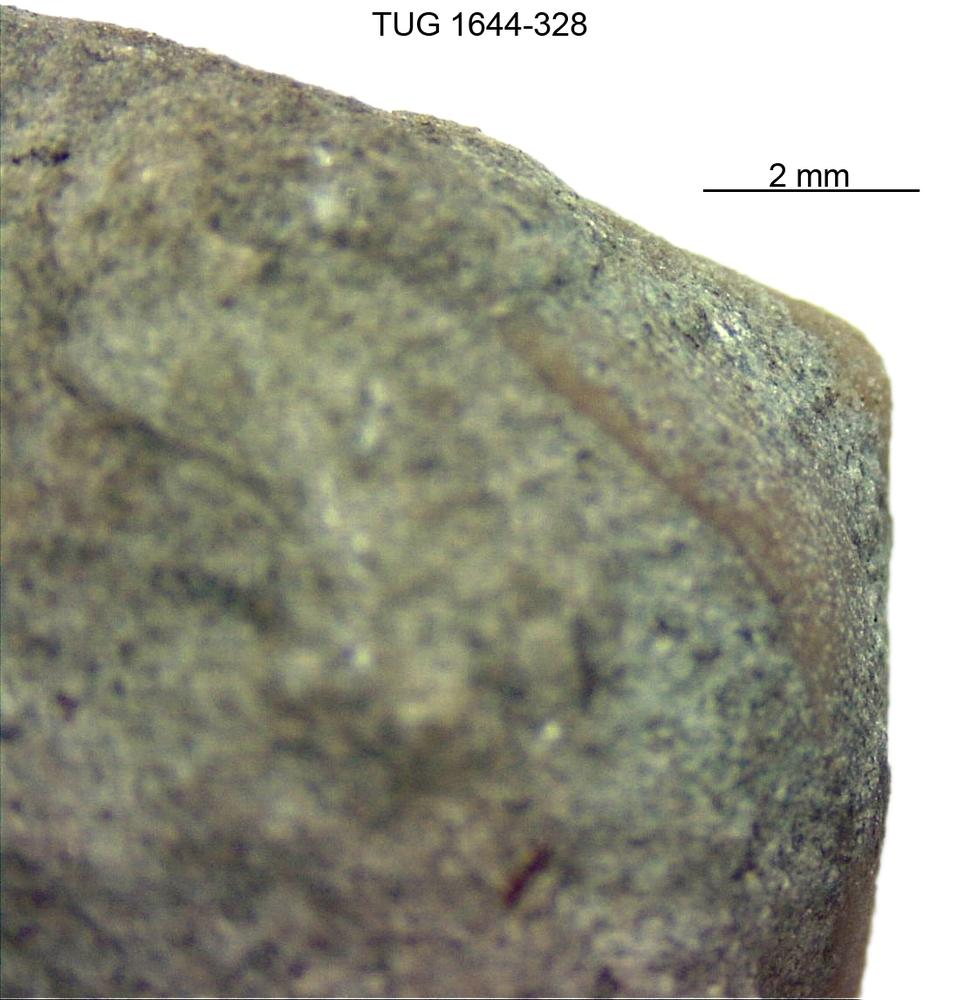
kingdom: Animalia
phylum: Mollusca
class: Monoplacophora
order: Tryblidiida
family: Tryblidiidae
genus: Pilina
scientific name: Pilina
